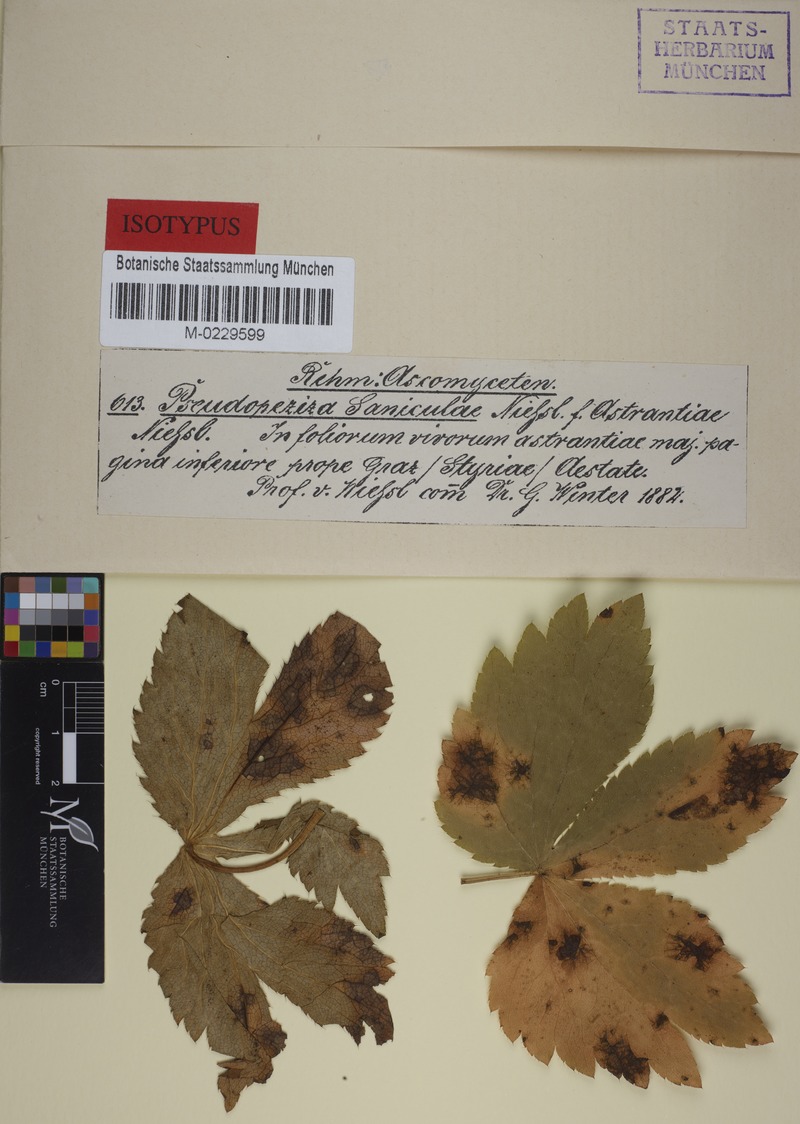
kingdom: Fungi
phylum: Ascomycota
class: Leotiomycetes
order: Helotiales
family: Drepanopezizaceae
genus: Leptotrochila
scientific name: Leptotrochila astrantiae
